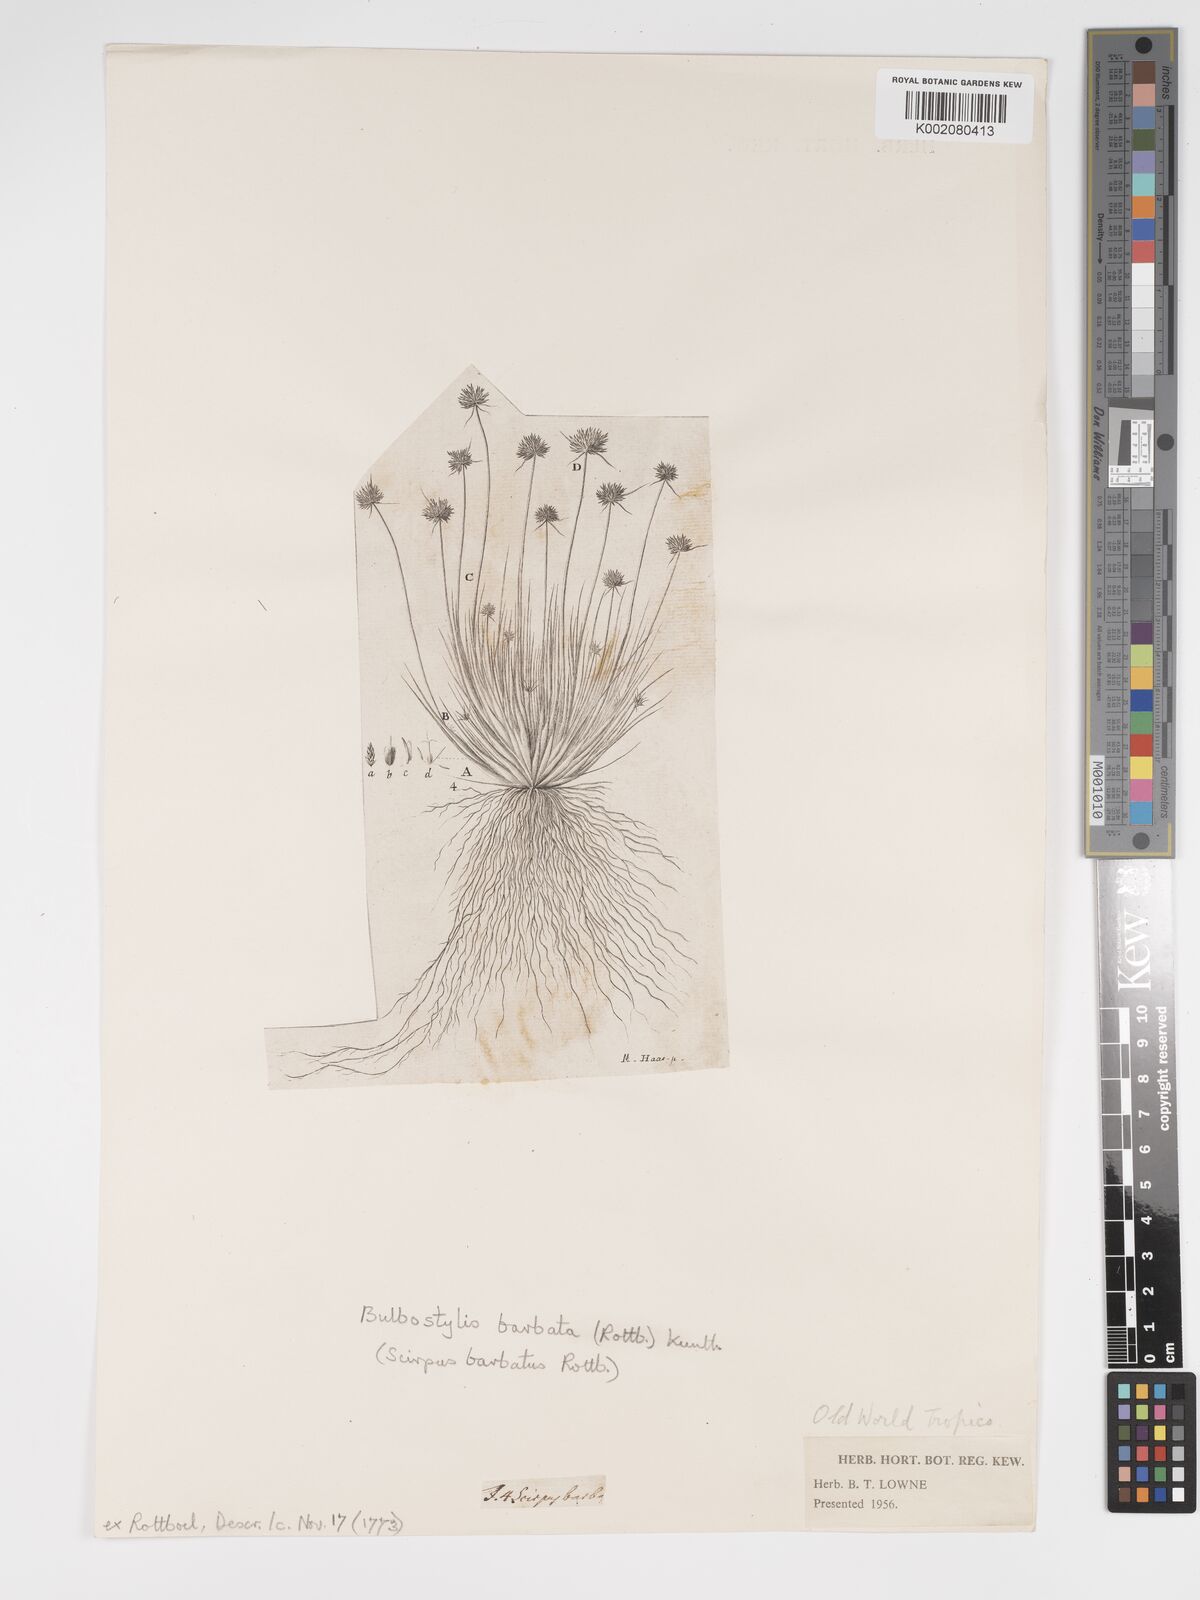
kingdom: Plantae
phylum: Tracheophyta
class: Liliopsida
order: Poales
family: Cyperaceae
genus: Bulbostylis
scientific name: Bulbostylis barbata
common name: Watergrass
